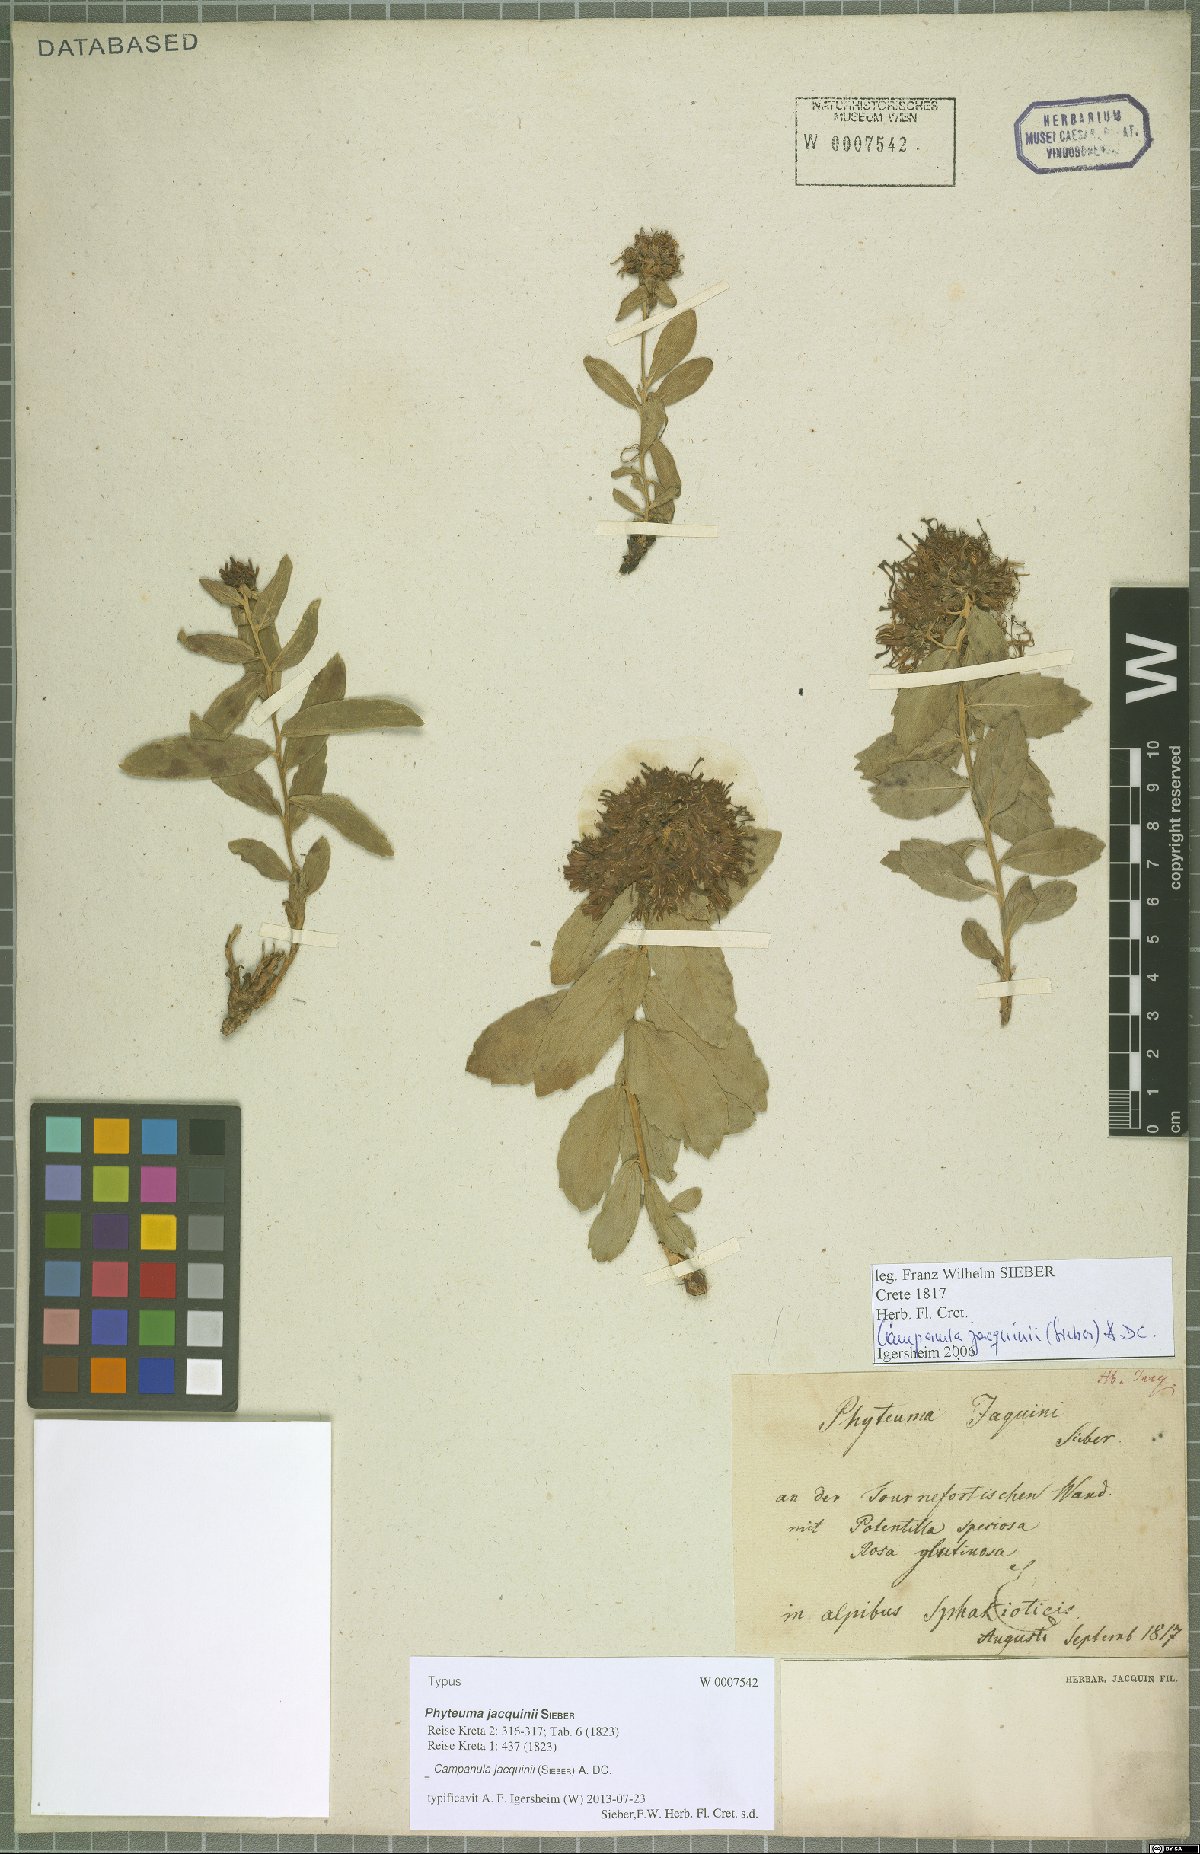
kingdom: Plantae
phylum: Tracheophyta
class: Magnoliopsida
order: Asterales
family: Campanulaceae
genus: Campanula
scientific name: Campanula jacquinii
